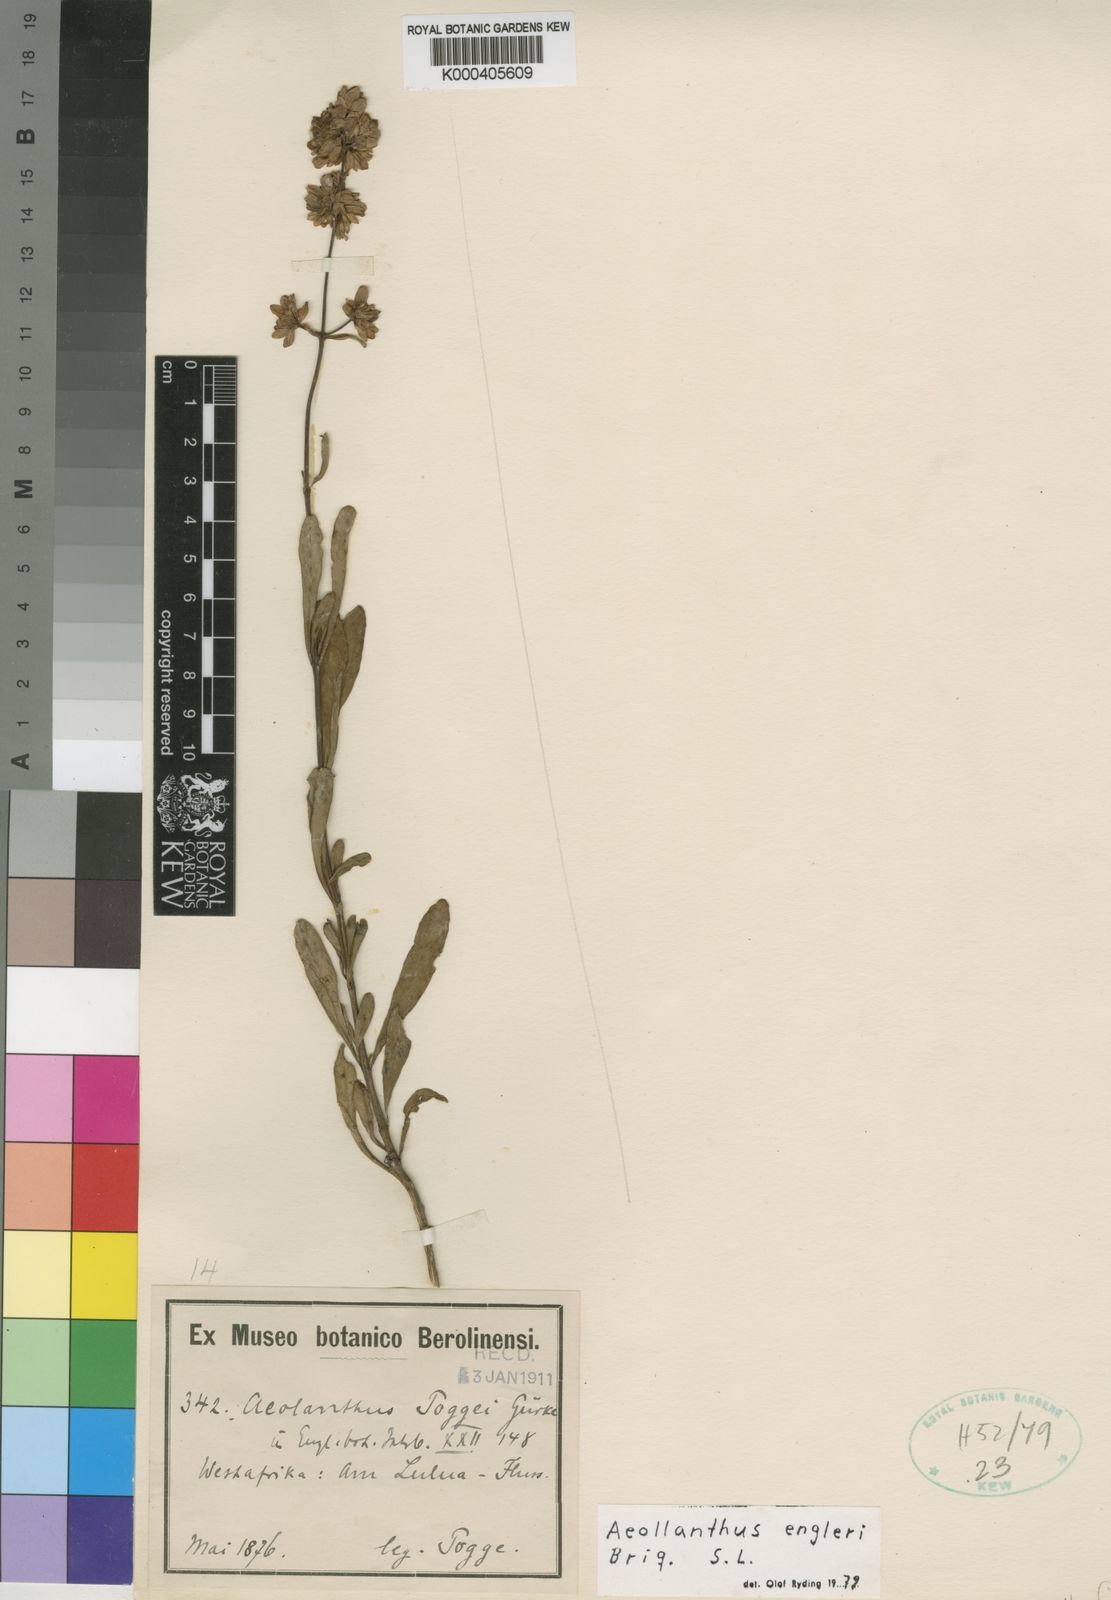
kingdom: Plantae
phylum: Tracheophyta
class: Magnoliopsida
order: Lamiales
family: Lamiaceae
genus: Aeollanthus
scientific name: Aeollanthus engleri
